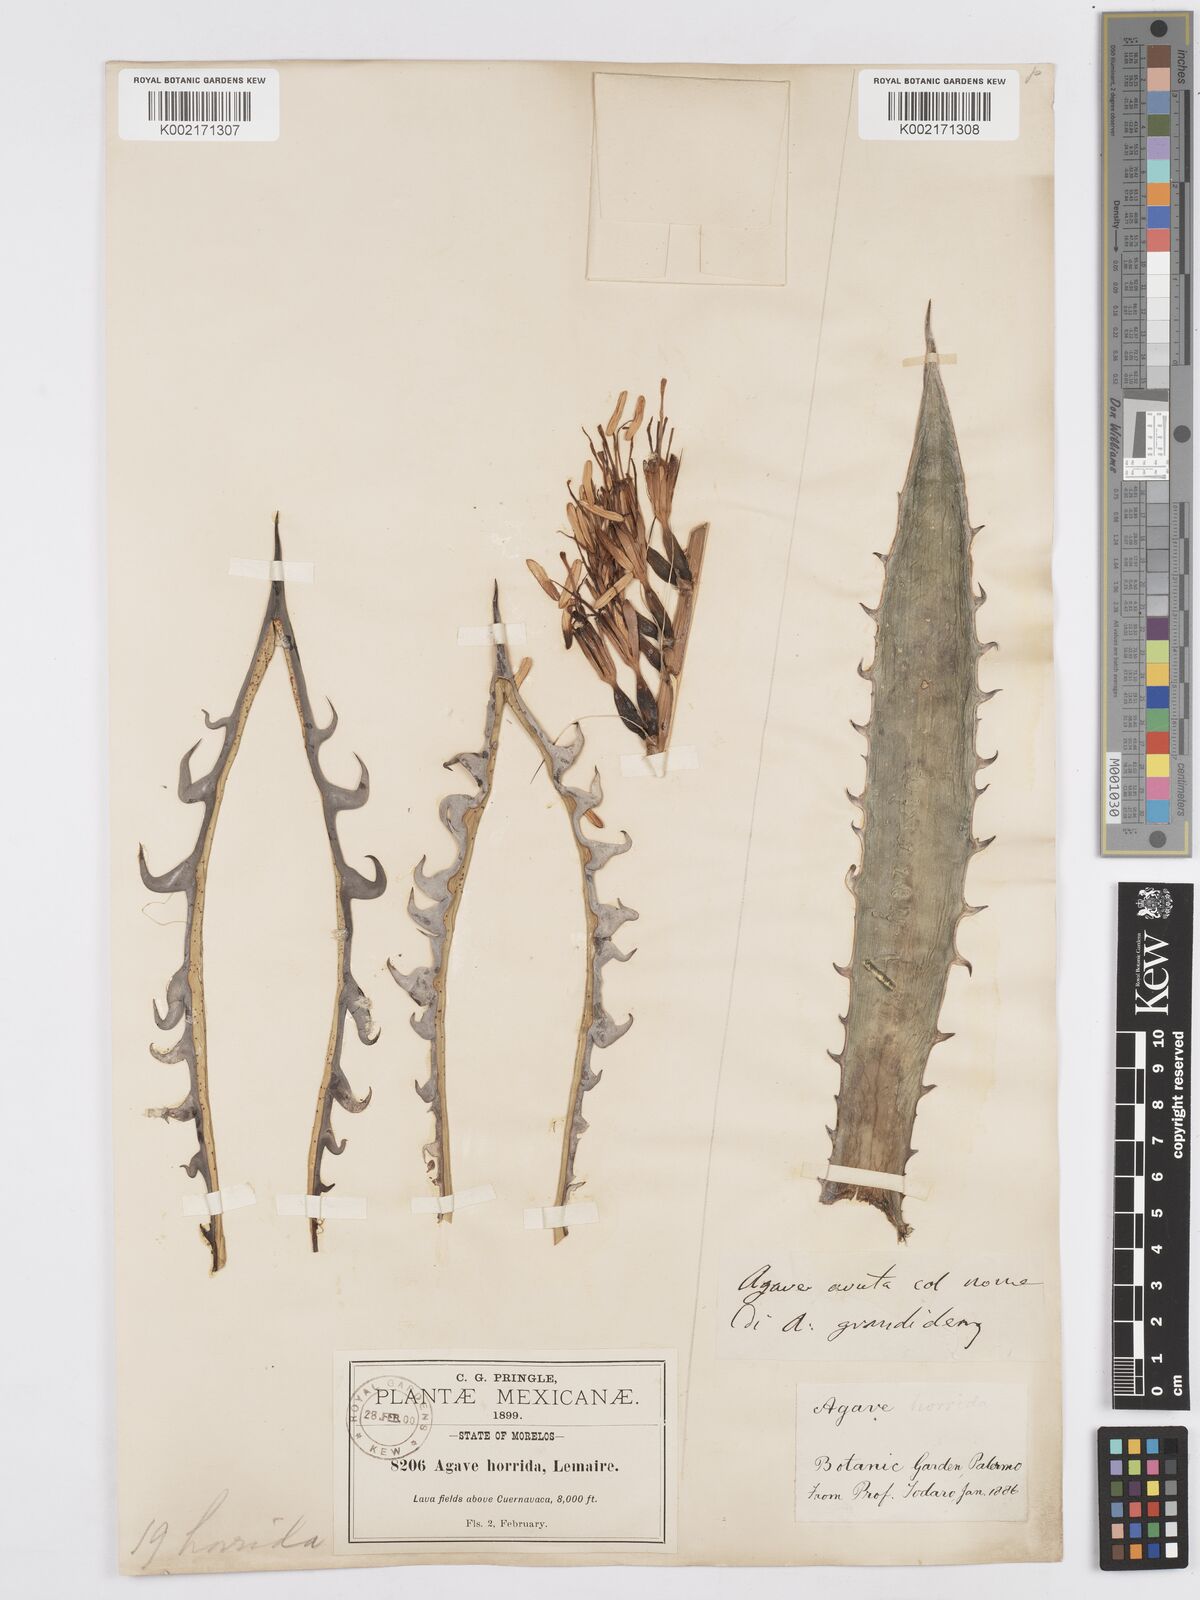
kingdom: Plantae
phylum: Tracheophyta
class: Liliopsida
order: Asparagales
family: Asparagaceae
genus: Agave
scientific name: Agave horrida
